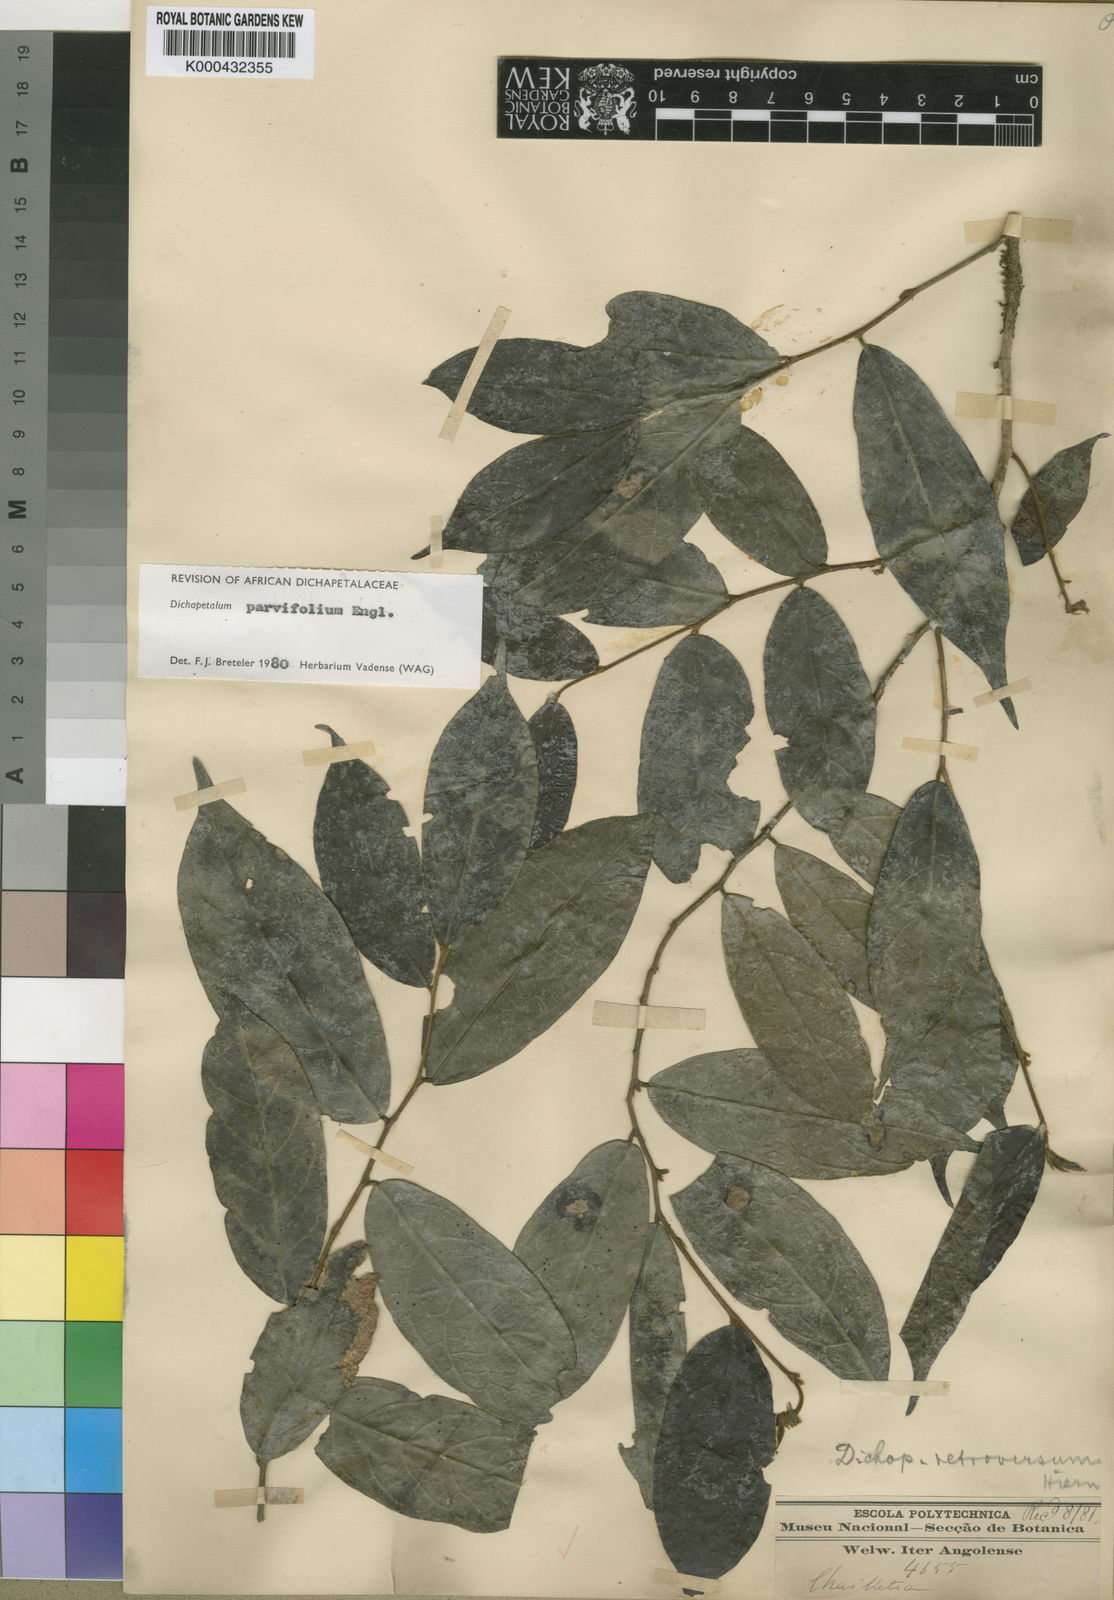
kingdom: Plantae
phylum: Tracheophyta
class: Magnoliopsida
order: Malpighiales
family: Dichapetalaceae
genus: Dichapetalum
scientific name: Dichapetalum parvifolium
